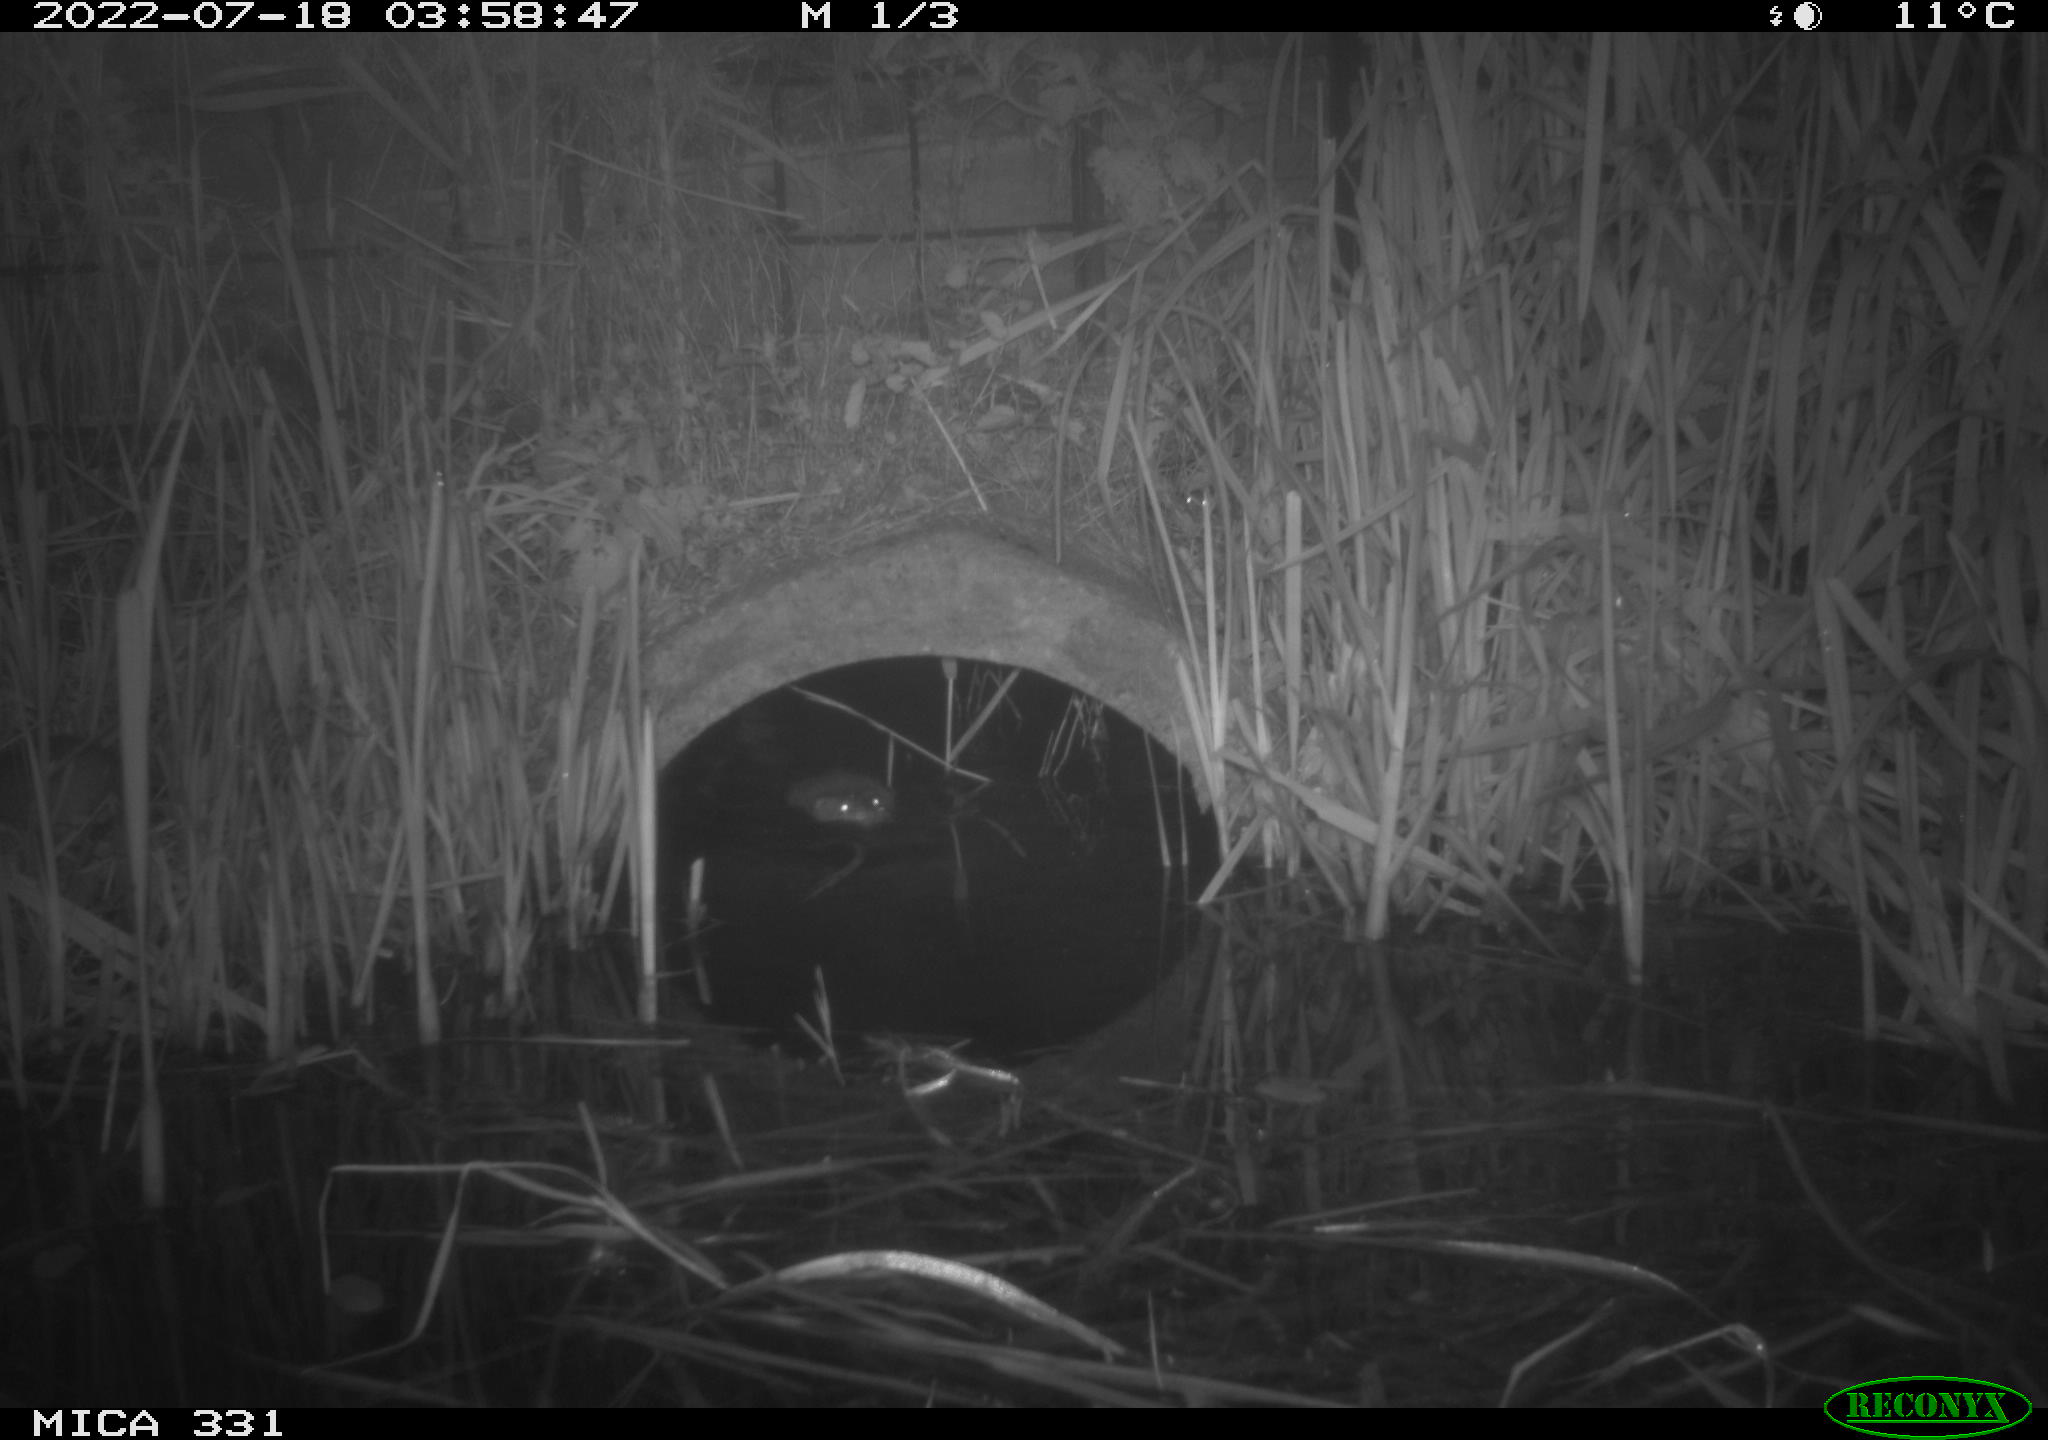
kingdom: Animalia
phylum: Chordata
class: Mammalia
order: Rodentia
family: Cricetidae
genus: Ondatra
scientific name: Ondatra zibethicus
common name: Muskrat
